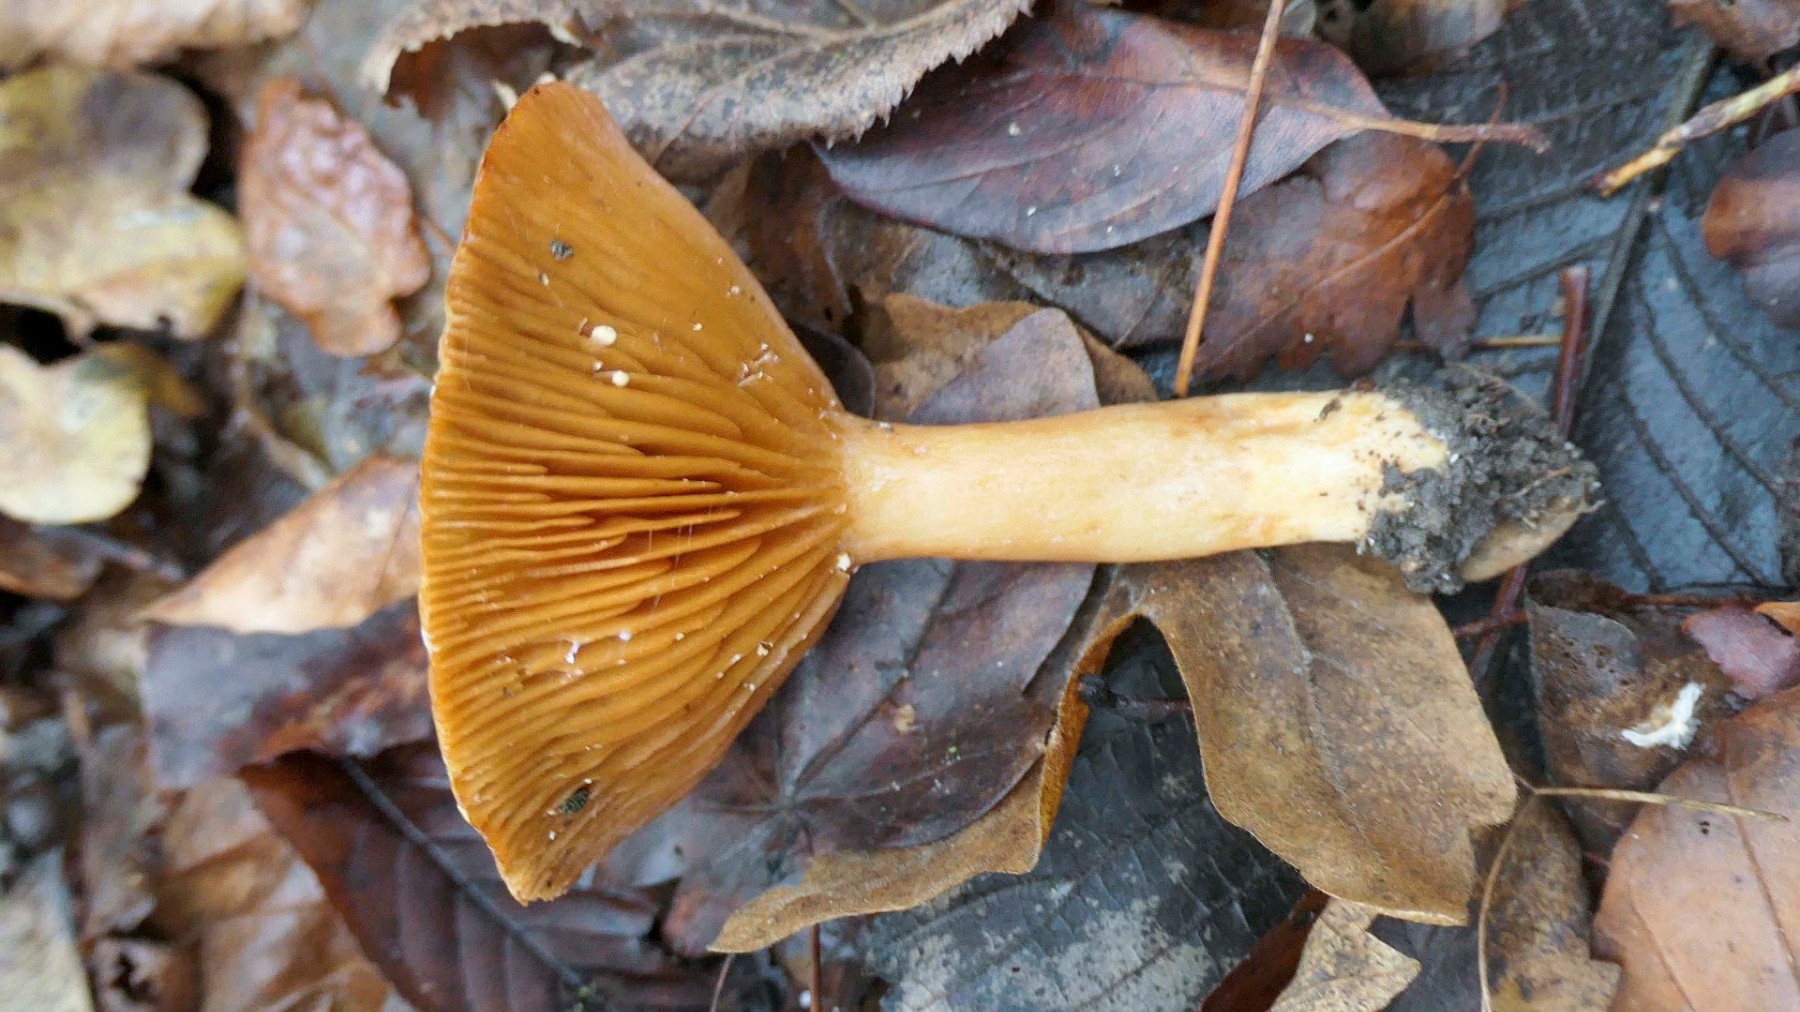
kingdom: Fungi
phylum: Basidiomycota
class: Agaricomycetes
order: Russulales
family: Russulaceae
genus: Lactarius
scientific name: Lactarius pyrogalus
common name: hassel-mælkehat
